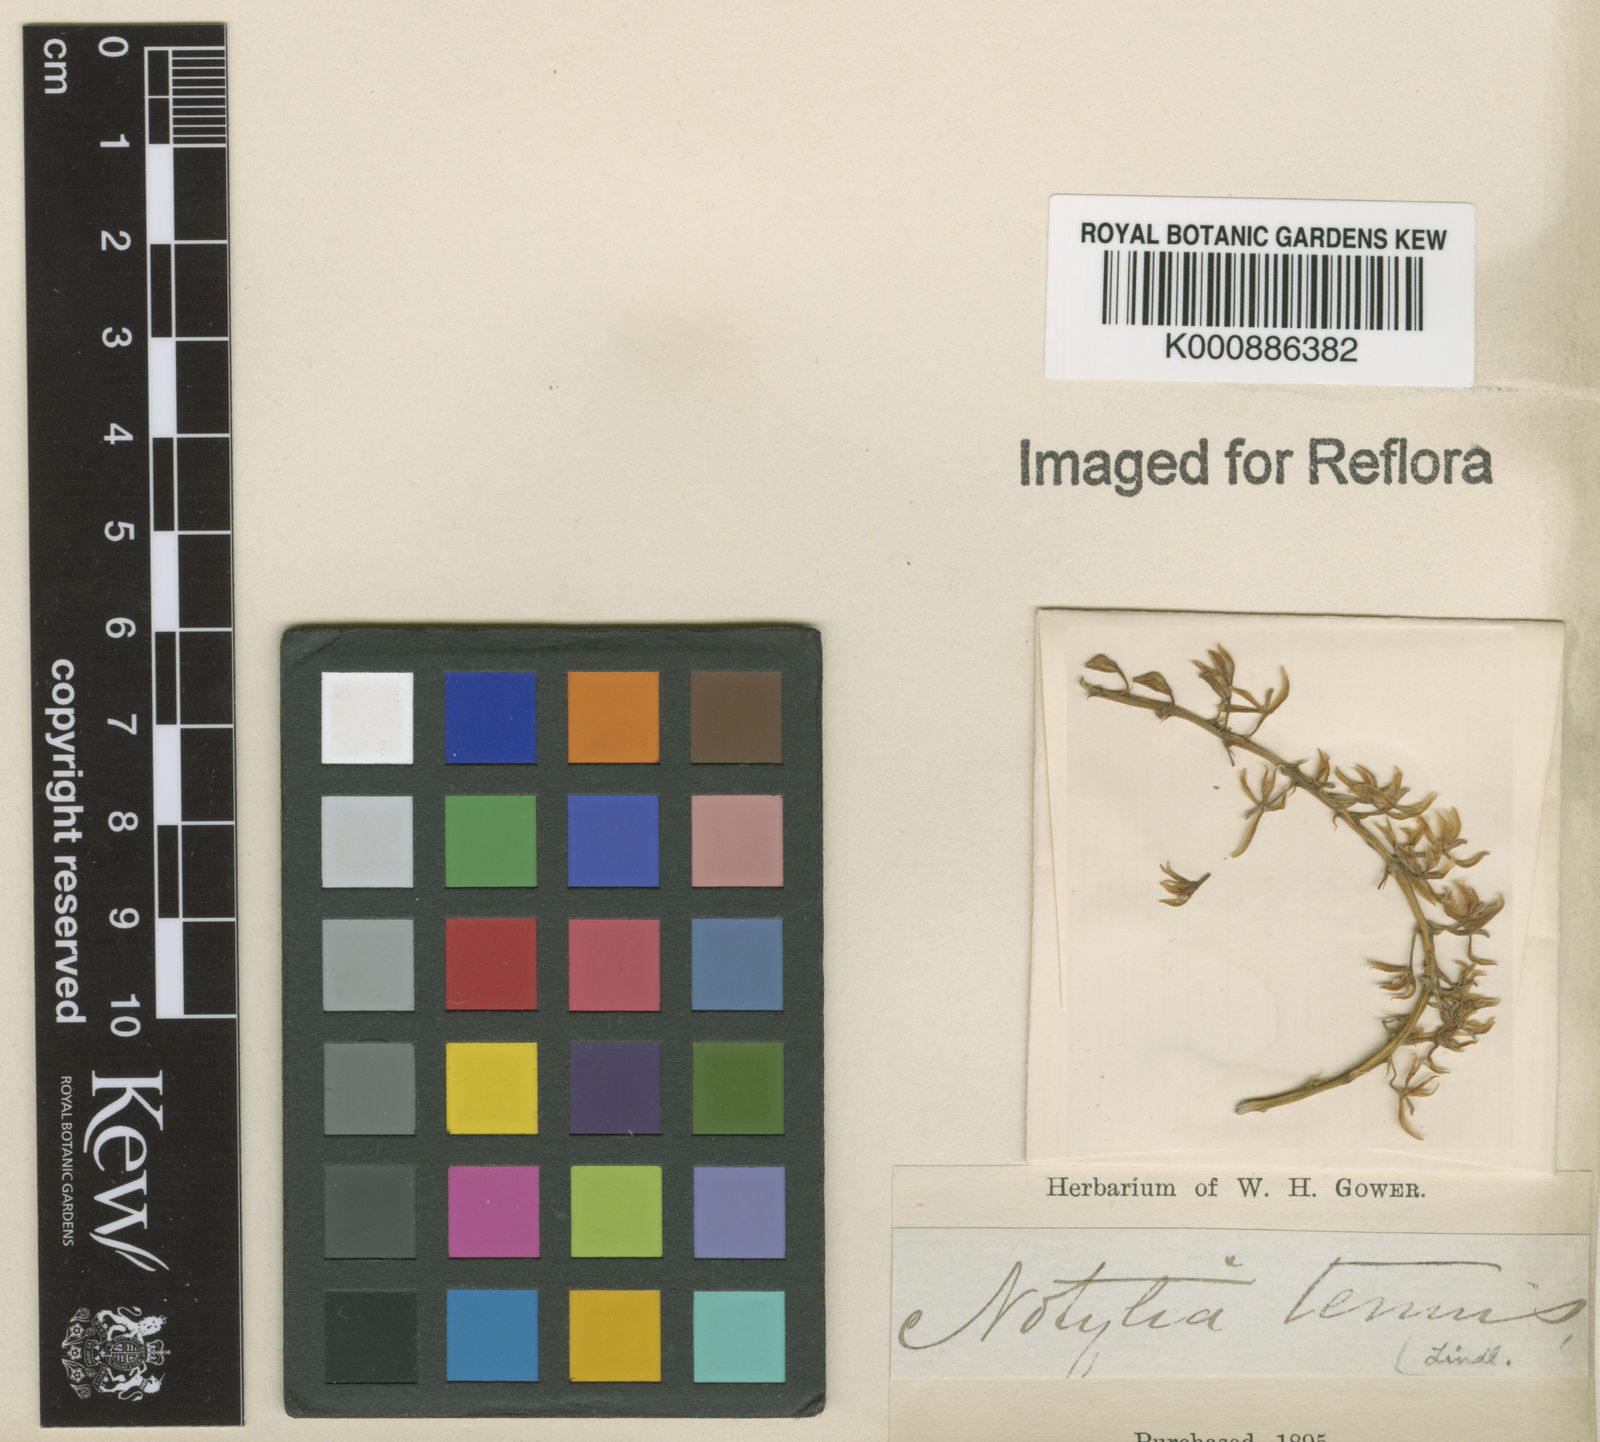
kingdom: Plantae
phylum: Tracheophyta
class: Liliopsida
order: Asparagales
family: Orchidaceae
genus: Notylia
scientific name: Notylia sagittifera
